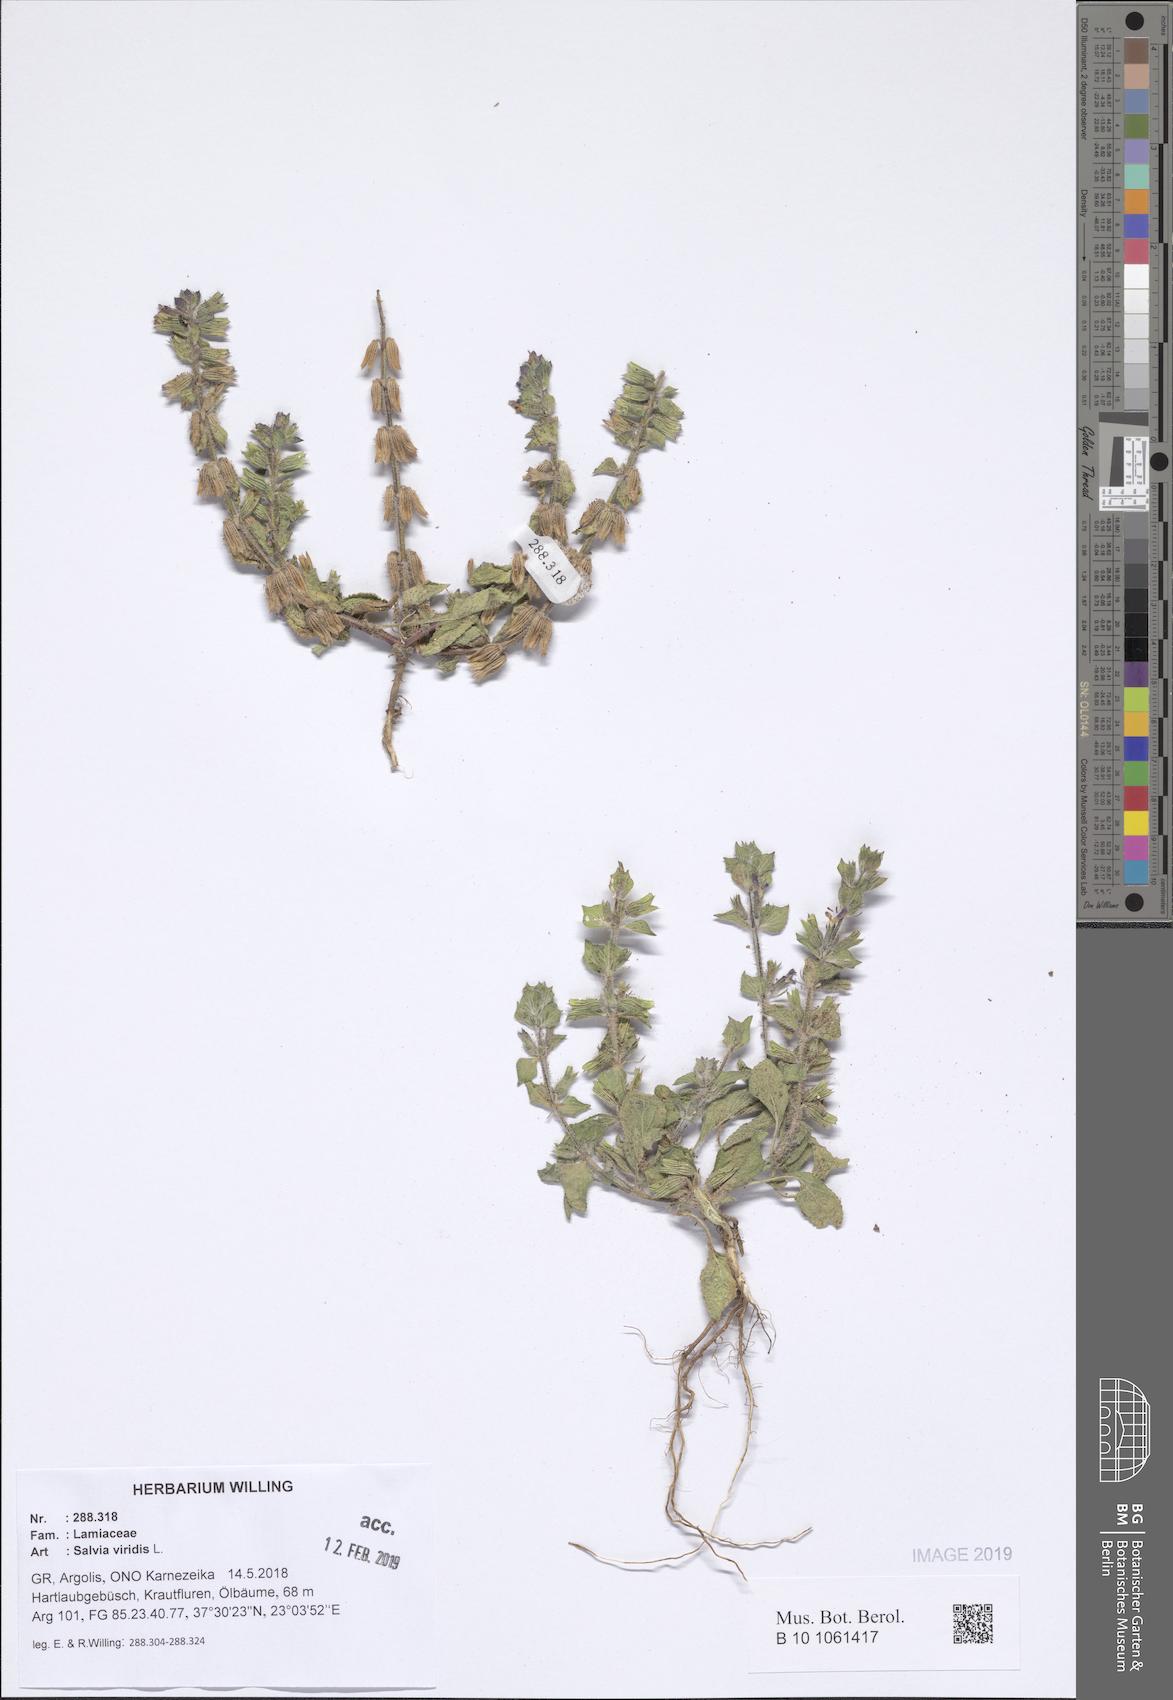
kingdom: Plantae
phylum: Tracheophyta
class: Magnoliopsida
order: Lamiales
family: Lamiaceae
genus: Salvia
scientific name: Salvia viridis
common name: Annual clary
